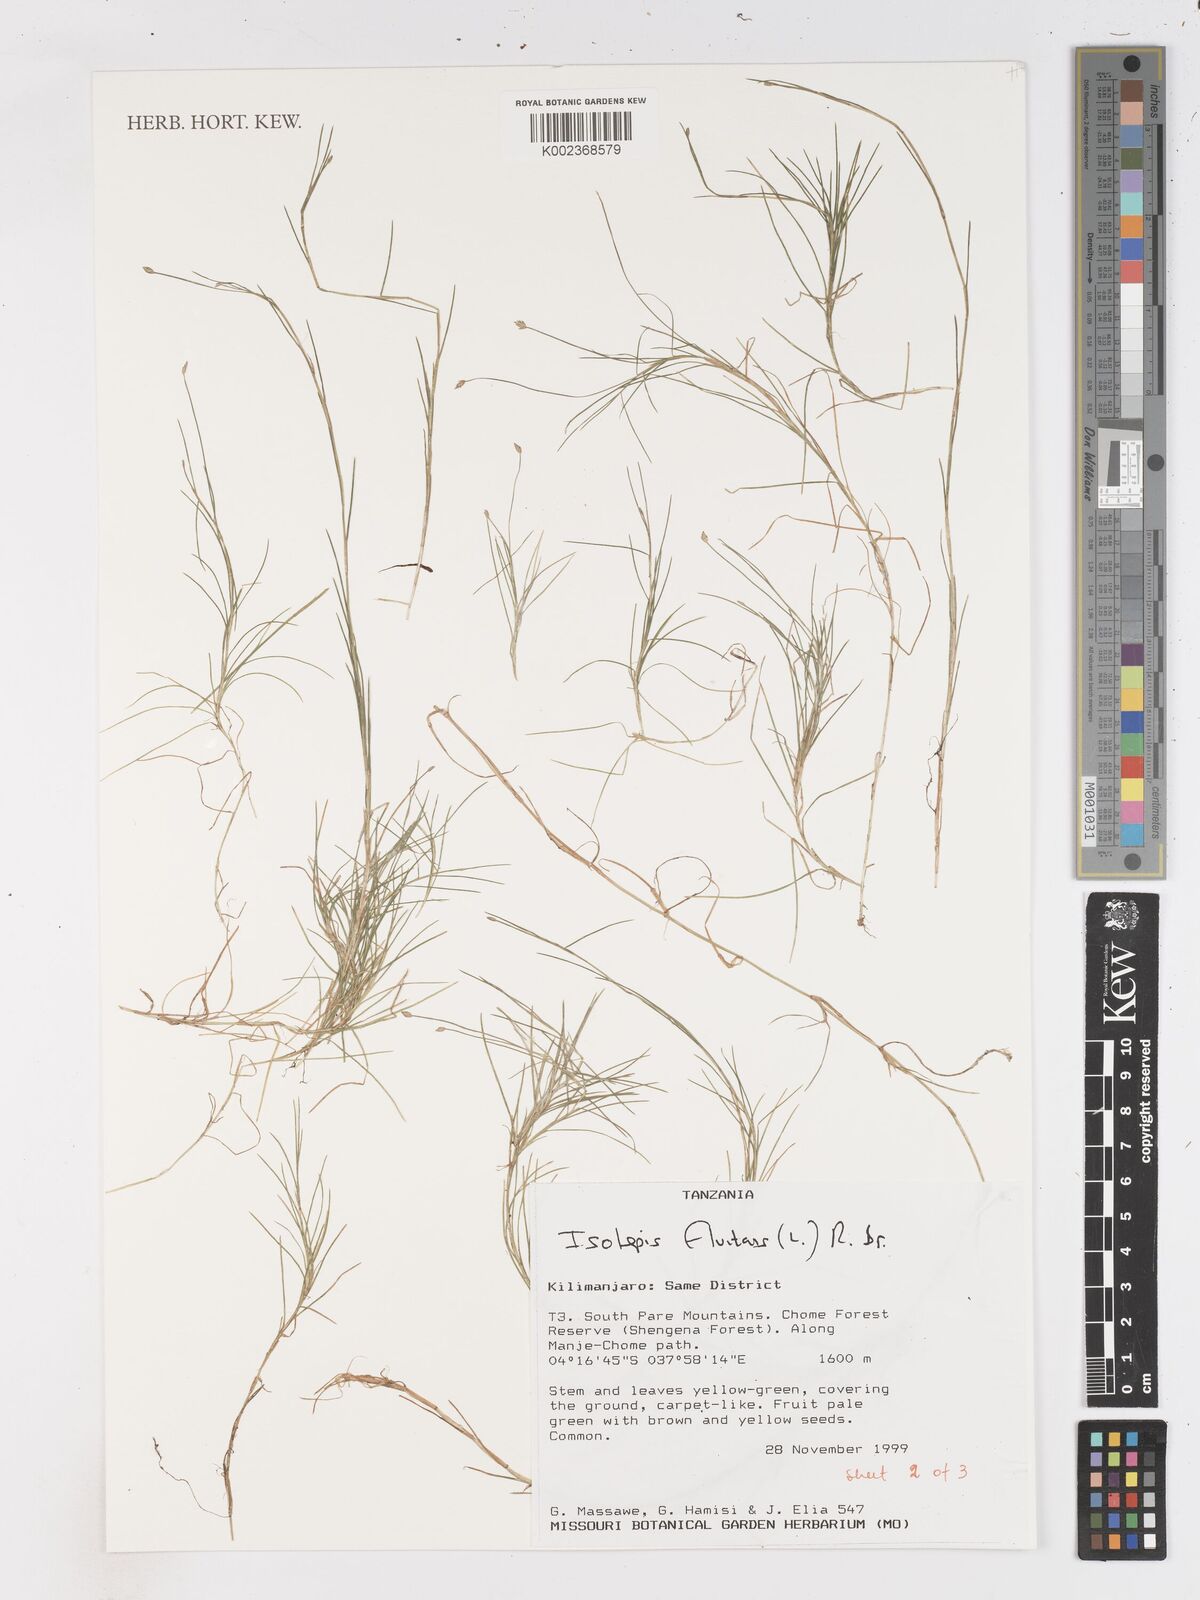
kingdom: Plantae
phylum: Tracheophyta
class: Liliopsida
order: Poales
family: Cyperaceae
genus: Isolepis
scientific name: Isolepis fluitans
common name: Floating club-rush
